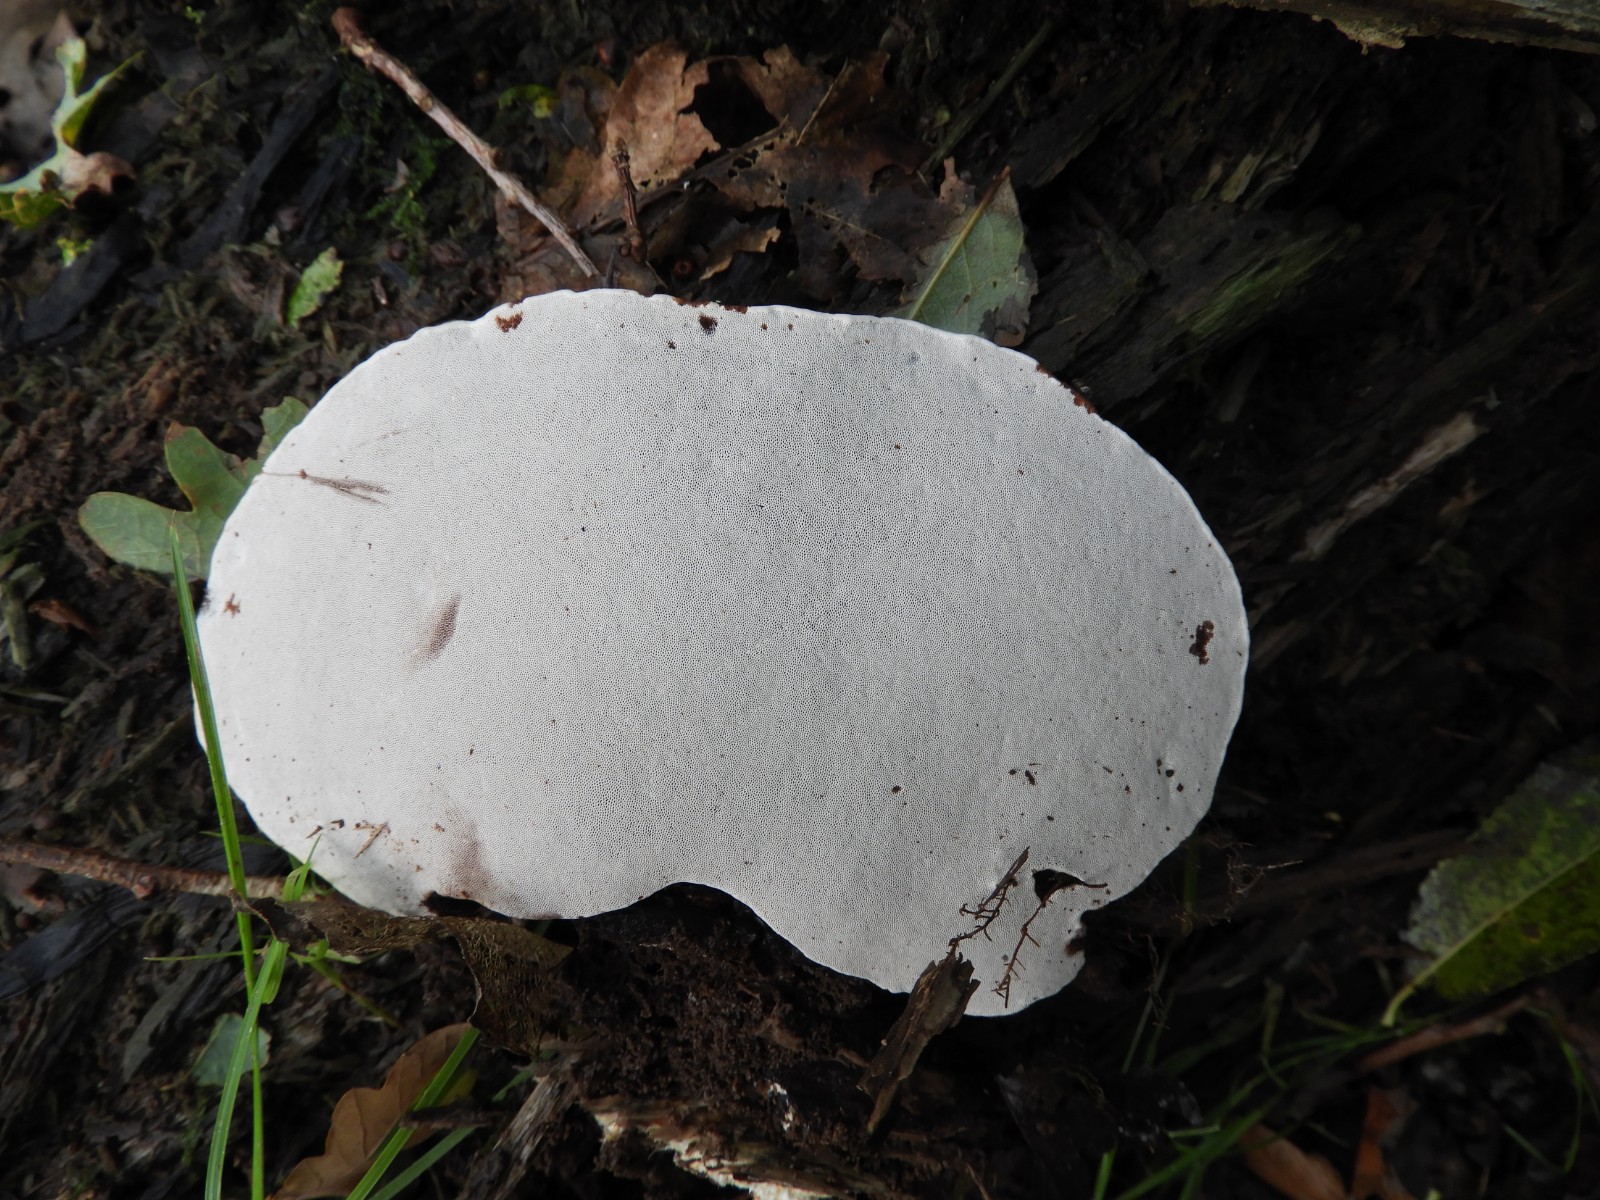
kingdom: Fungi
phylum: Basidiomycota
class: Agaricomycetes
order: Polyporales
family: Polyporaceae
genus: Ganoderma
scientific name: Ganoderma applanatum
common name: flad lakporesvamp
